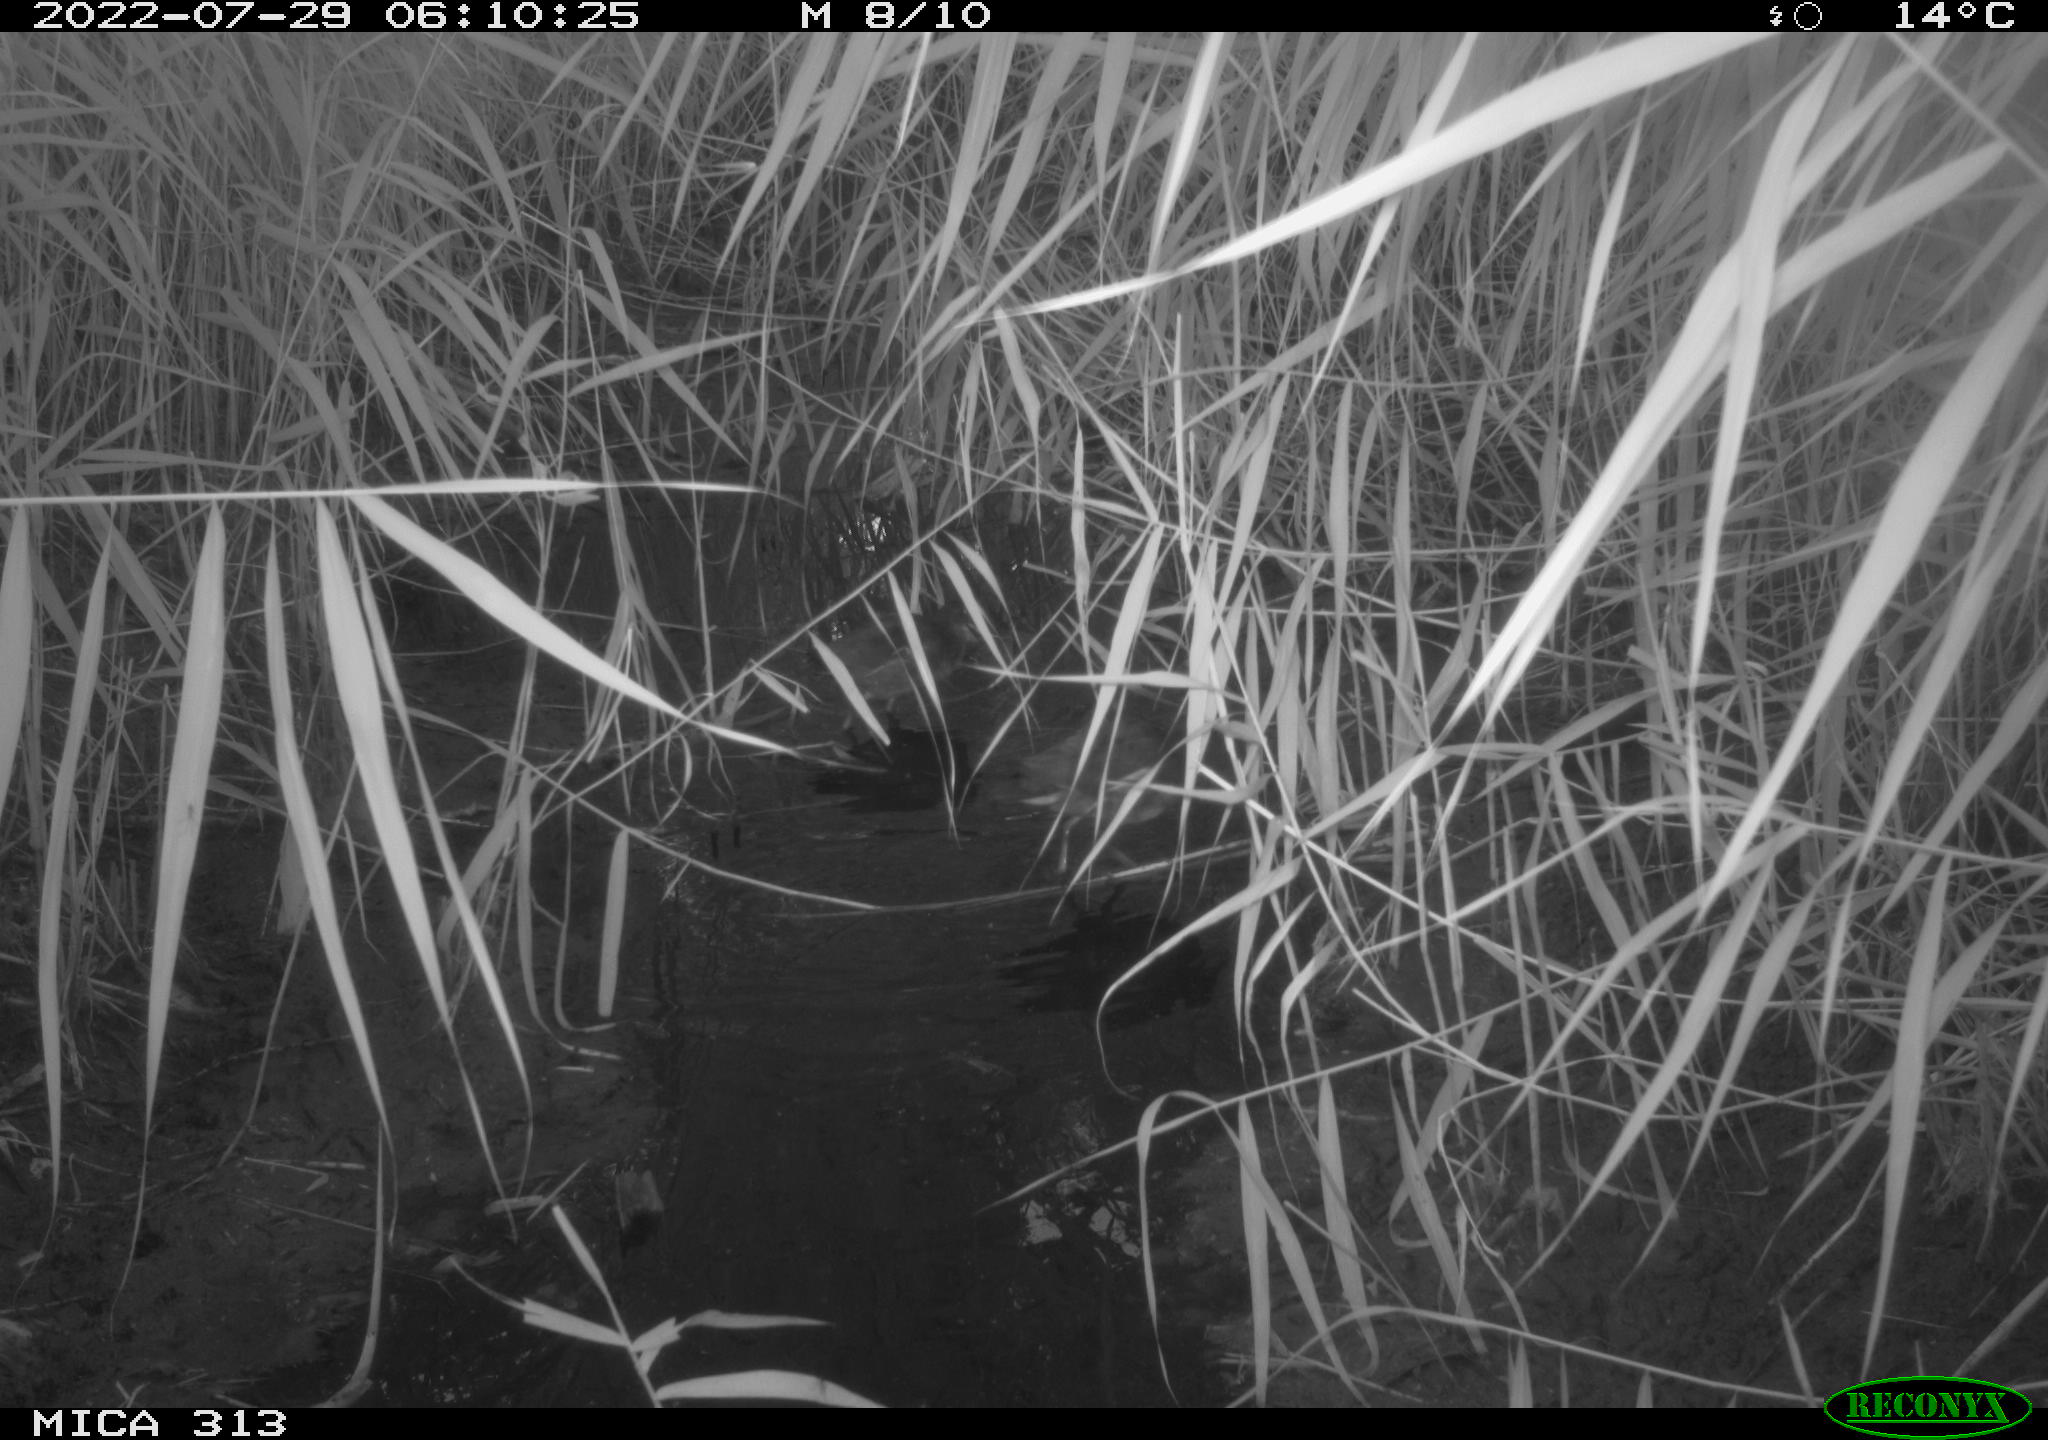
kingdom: Animalia
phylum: Chordata
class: Aves
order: Gruiformes
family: Rallidae
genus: Gallinula
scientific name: Gallinula chloropus
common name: Common moorhen
